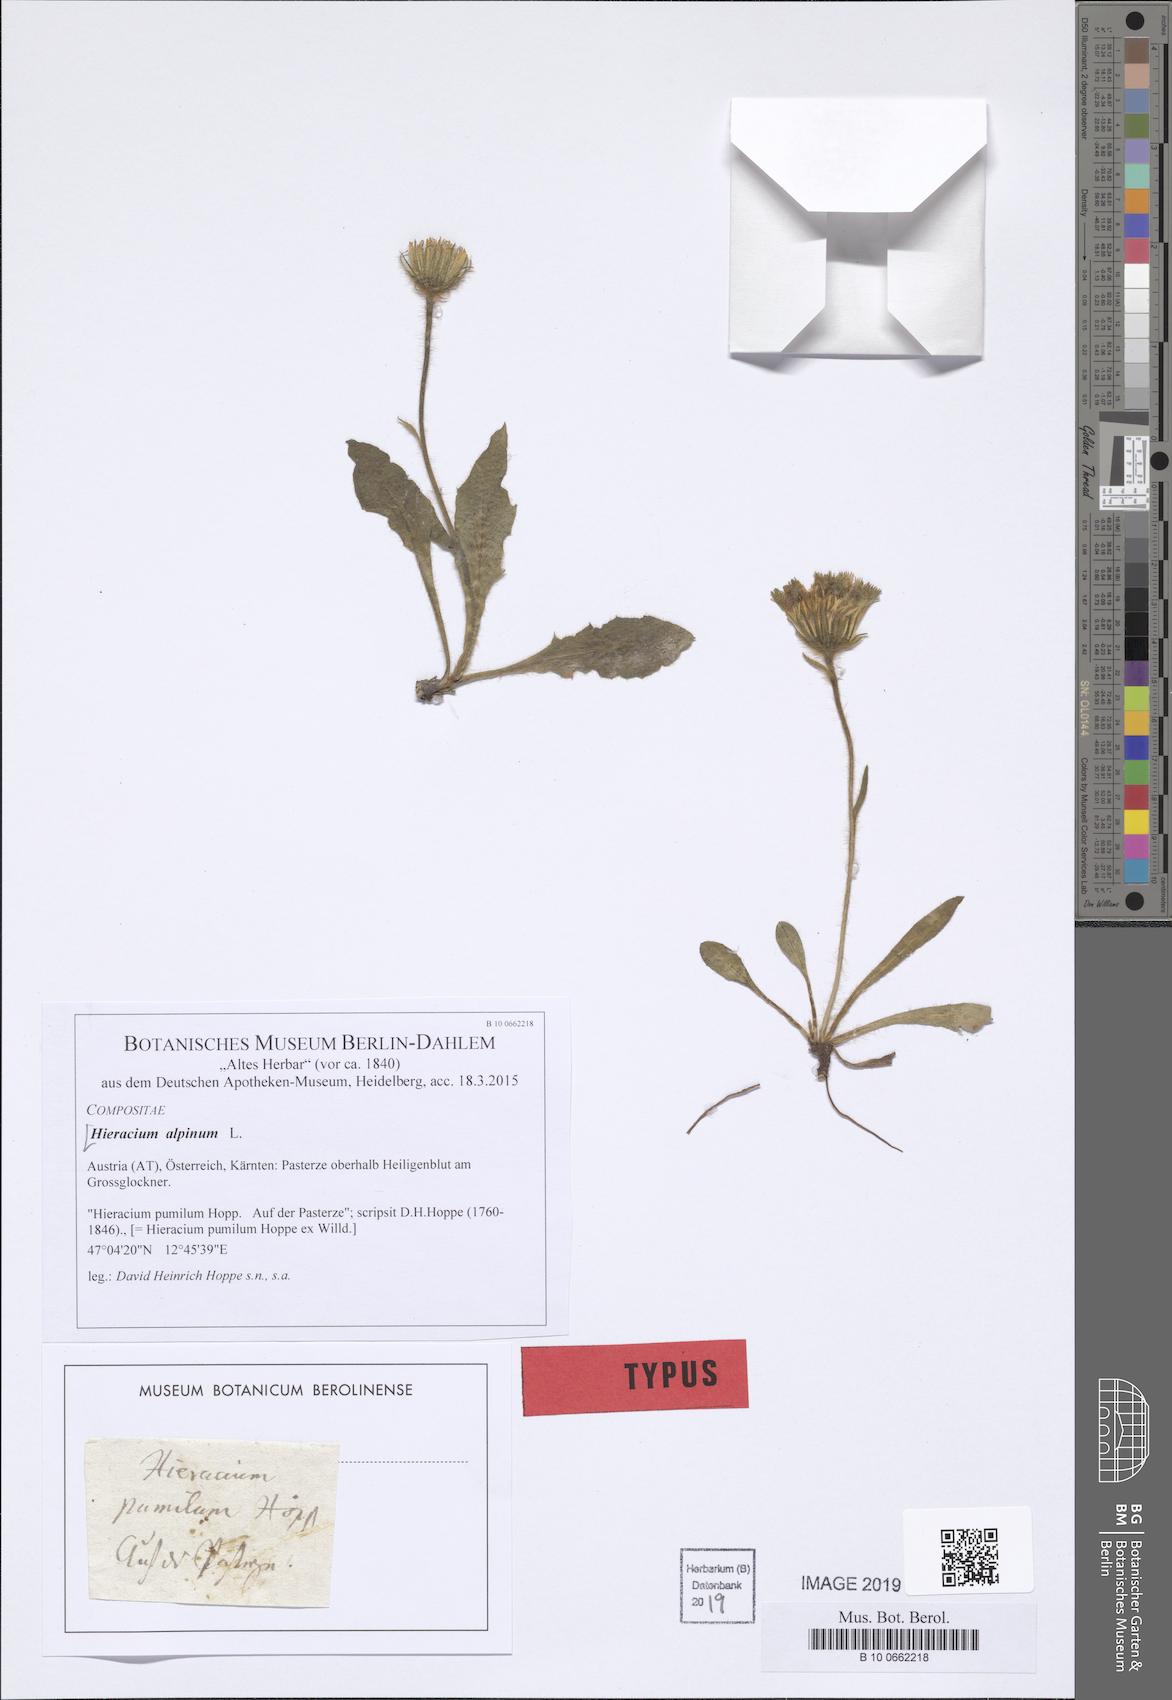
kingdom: Plantae
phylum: Tracheophyta
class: Magnoliopsida
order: Asterales
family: Asteraceae
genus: Hieracium
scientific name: Hieracium alpinum
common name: Alpine hawkweed
